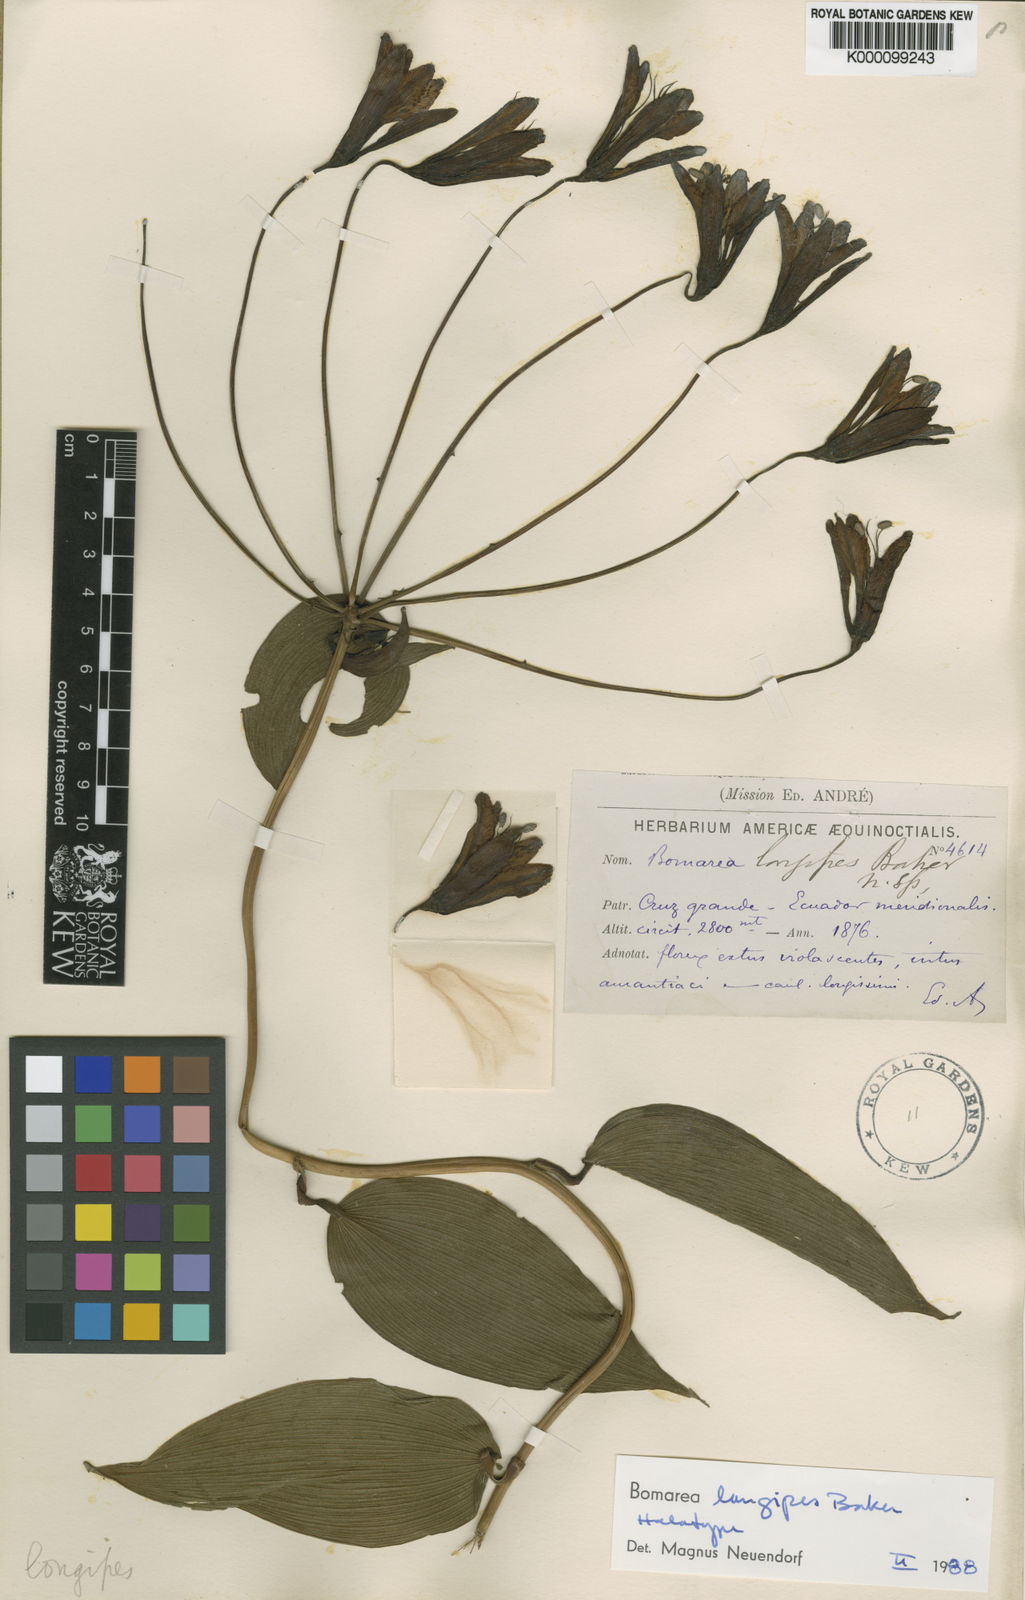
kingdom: Plantae
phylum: Tracheophyta
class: Liliopsida
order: Liliales
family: Alstroemeriaceae
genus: Bomarea
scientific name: Bomarea longipes
